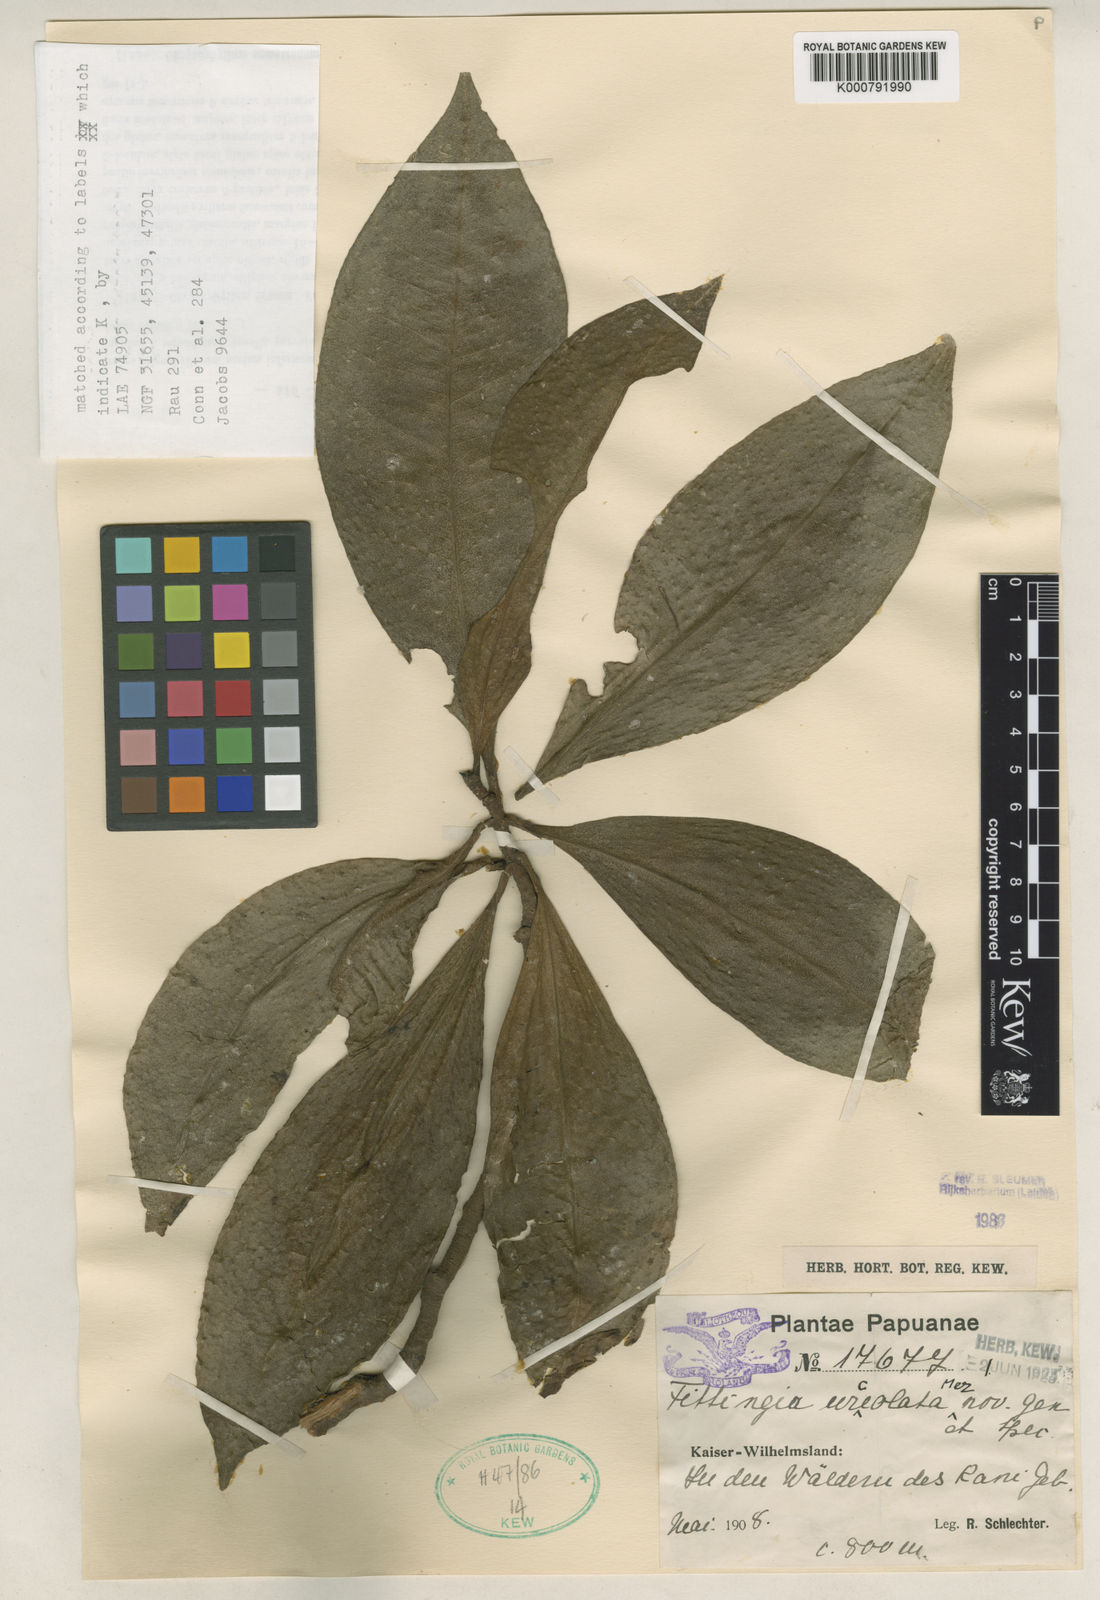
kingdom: Plantae
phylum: Tracheophyta
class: Magnoliopsida
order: Ericales
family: Primulaceae
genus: Fittingia
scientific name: Fittingia urceolata
